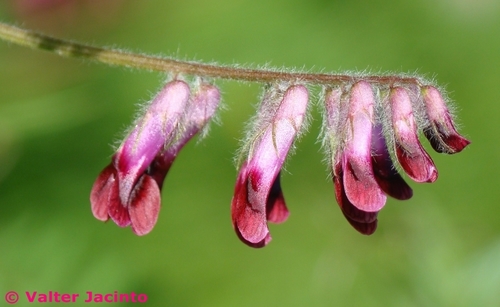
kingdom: Plantae
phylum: Tracheophyta
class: Magnoliopsida
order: Fabales
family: Fabaceae
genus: Vicia
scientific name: Vicia benghalensis
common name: Purple vetch
